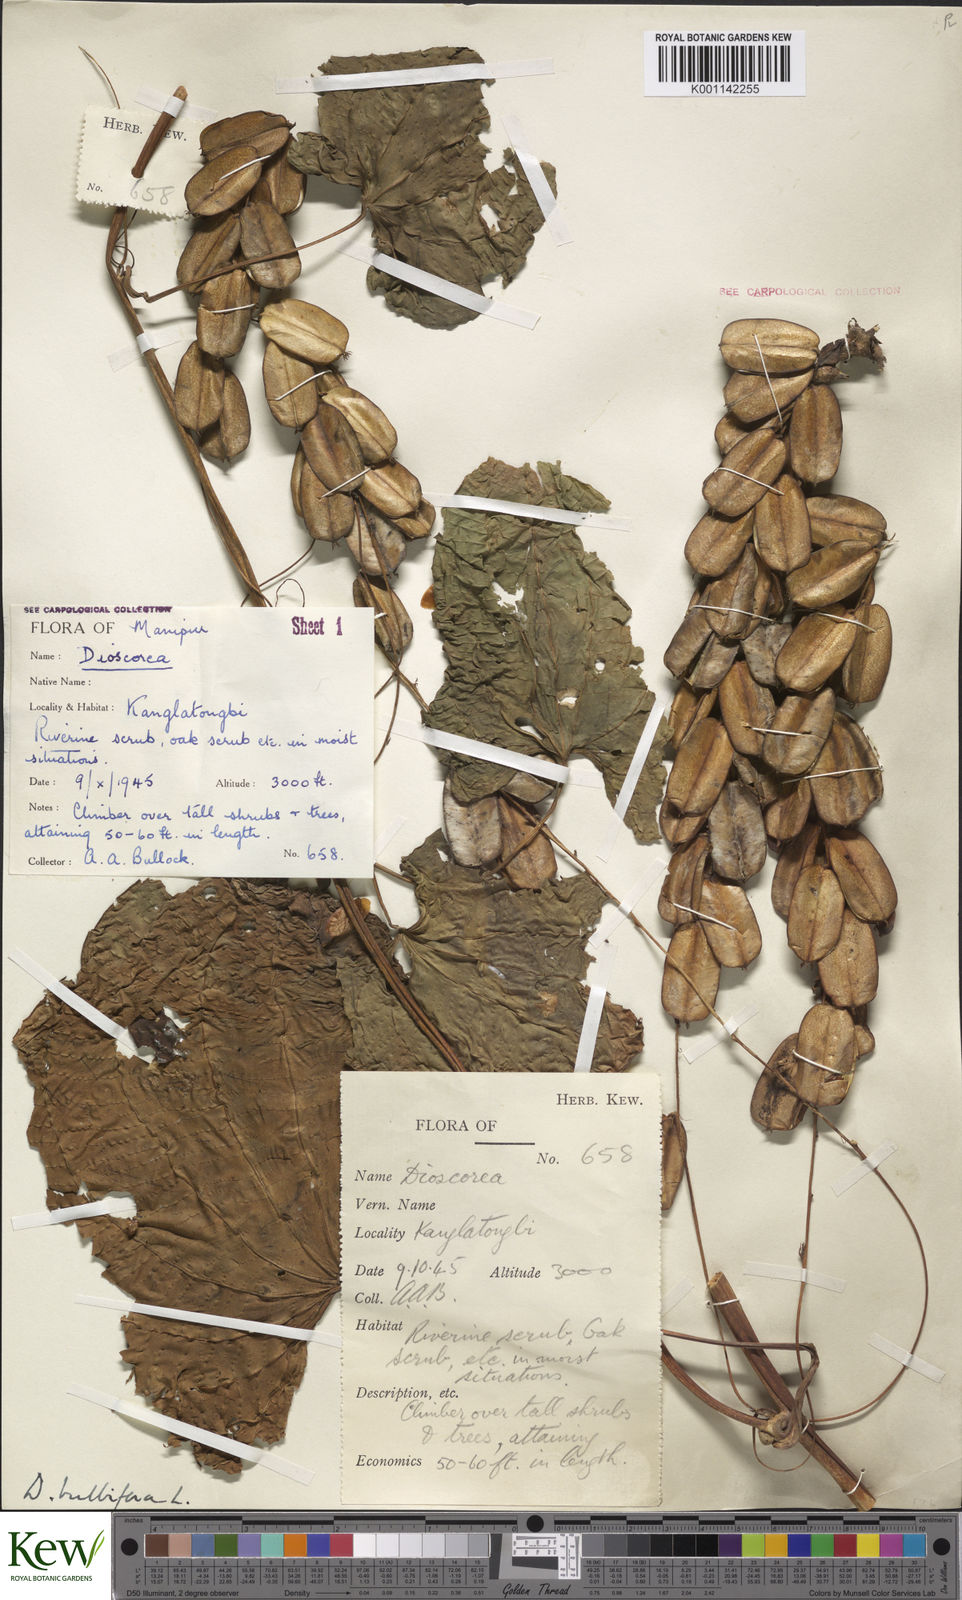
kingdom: Plantae
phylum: Tracheophyta
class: Liliopsida
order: Dioscoreales
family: Dioscoreaceae
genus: Dioscorea
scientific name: Dioscorea bulbifera
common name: Air yam
